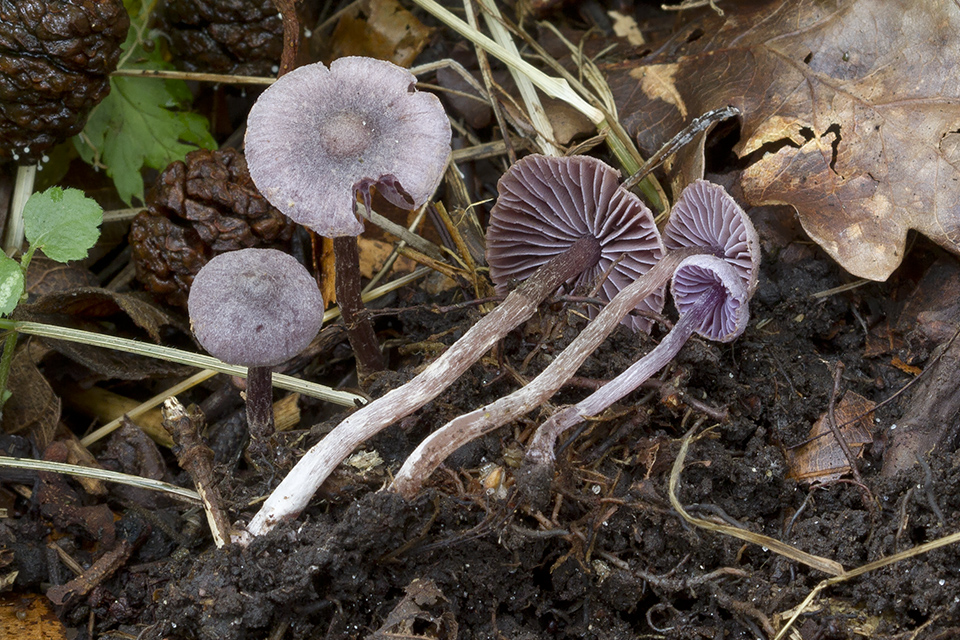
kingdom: Fungi
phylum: Basidiomycota
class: Agaricomycetes
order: Agaricales
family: Cortinariaceae
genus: Cortinarius
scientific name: Cortinarius bibulus
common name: smuk slørhat
